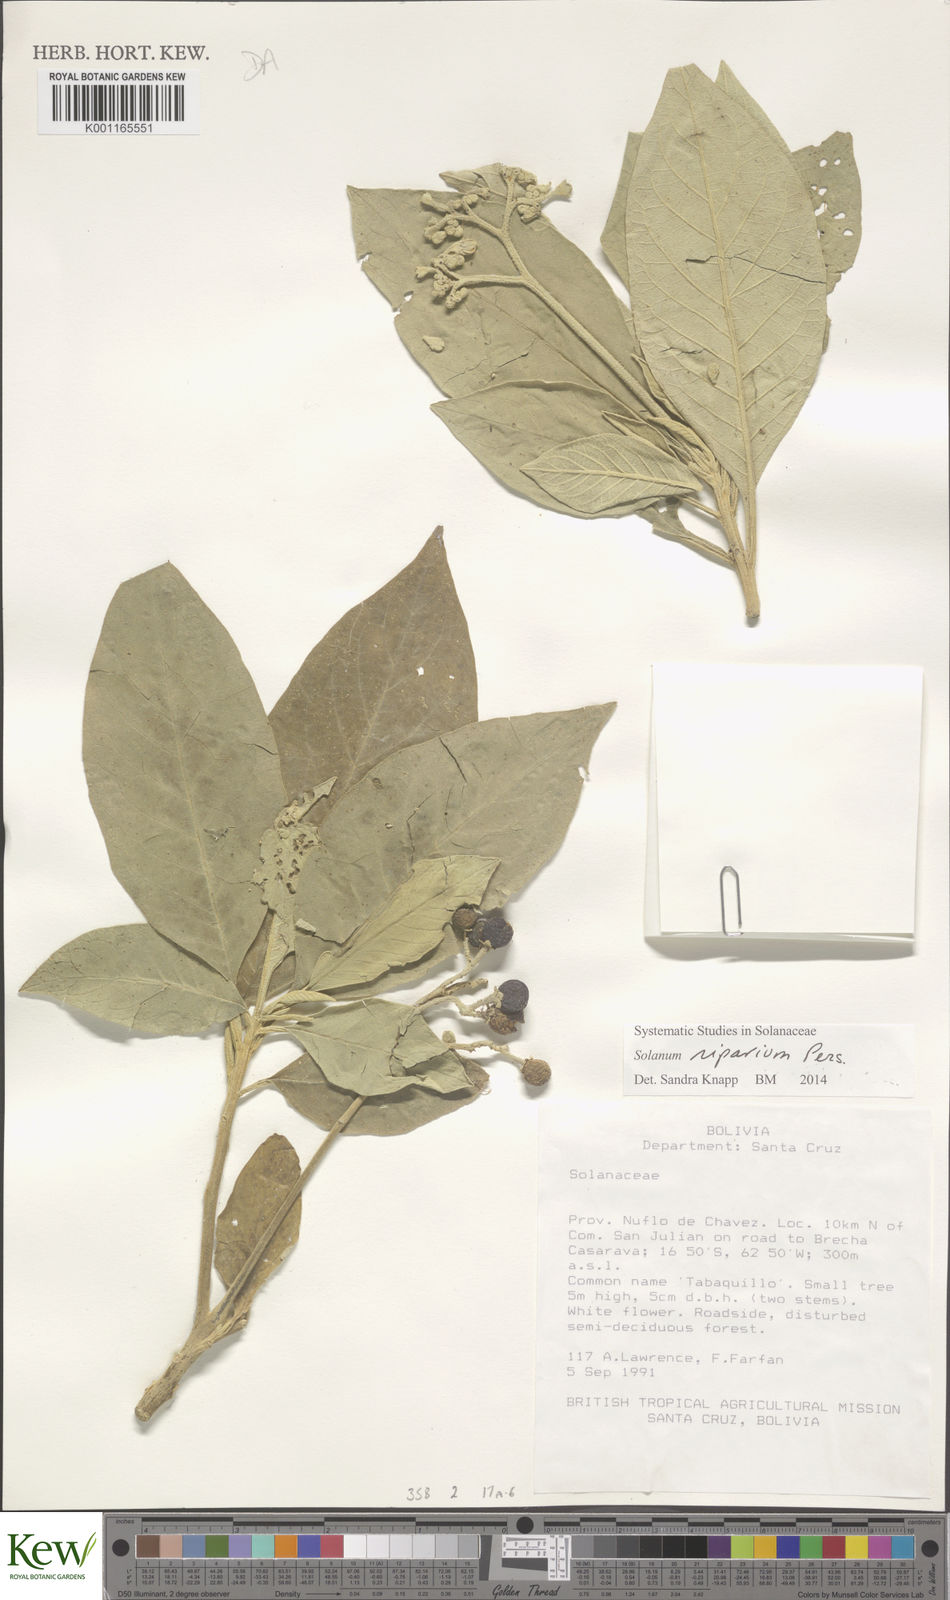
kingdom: Plantae
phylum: Tracheophyta
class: Magnoliopsida
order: Solanales
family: Solanaceae
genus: Solanum
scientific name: Solanum riparium
